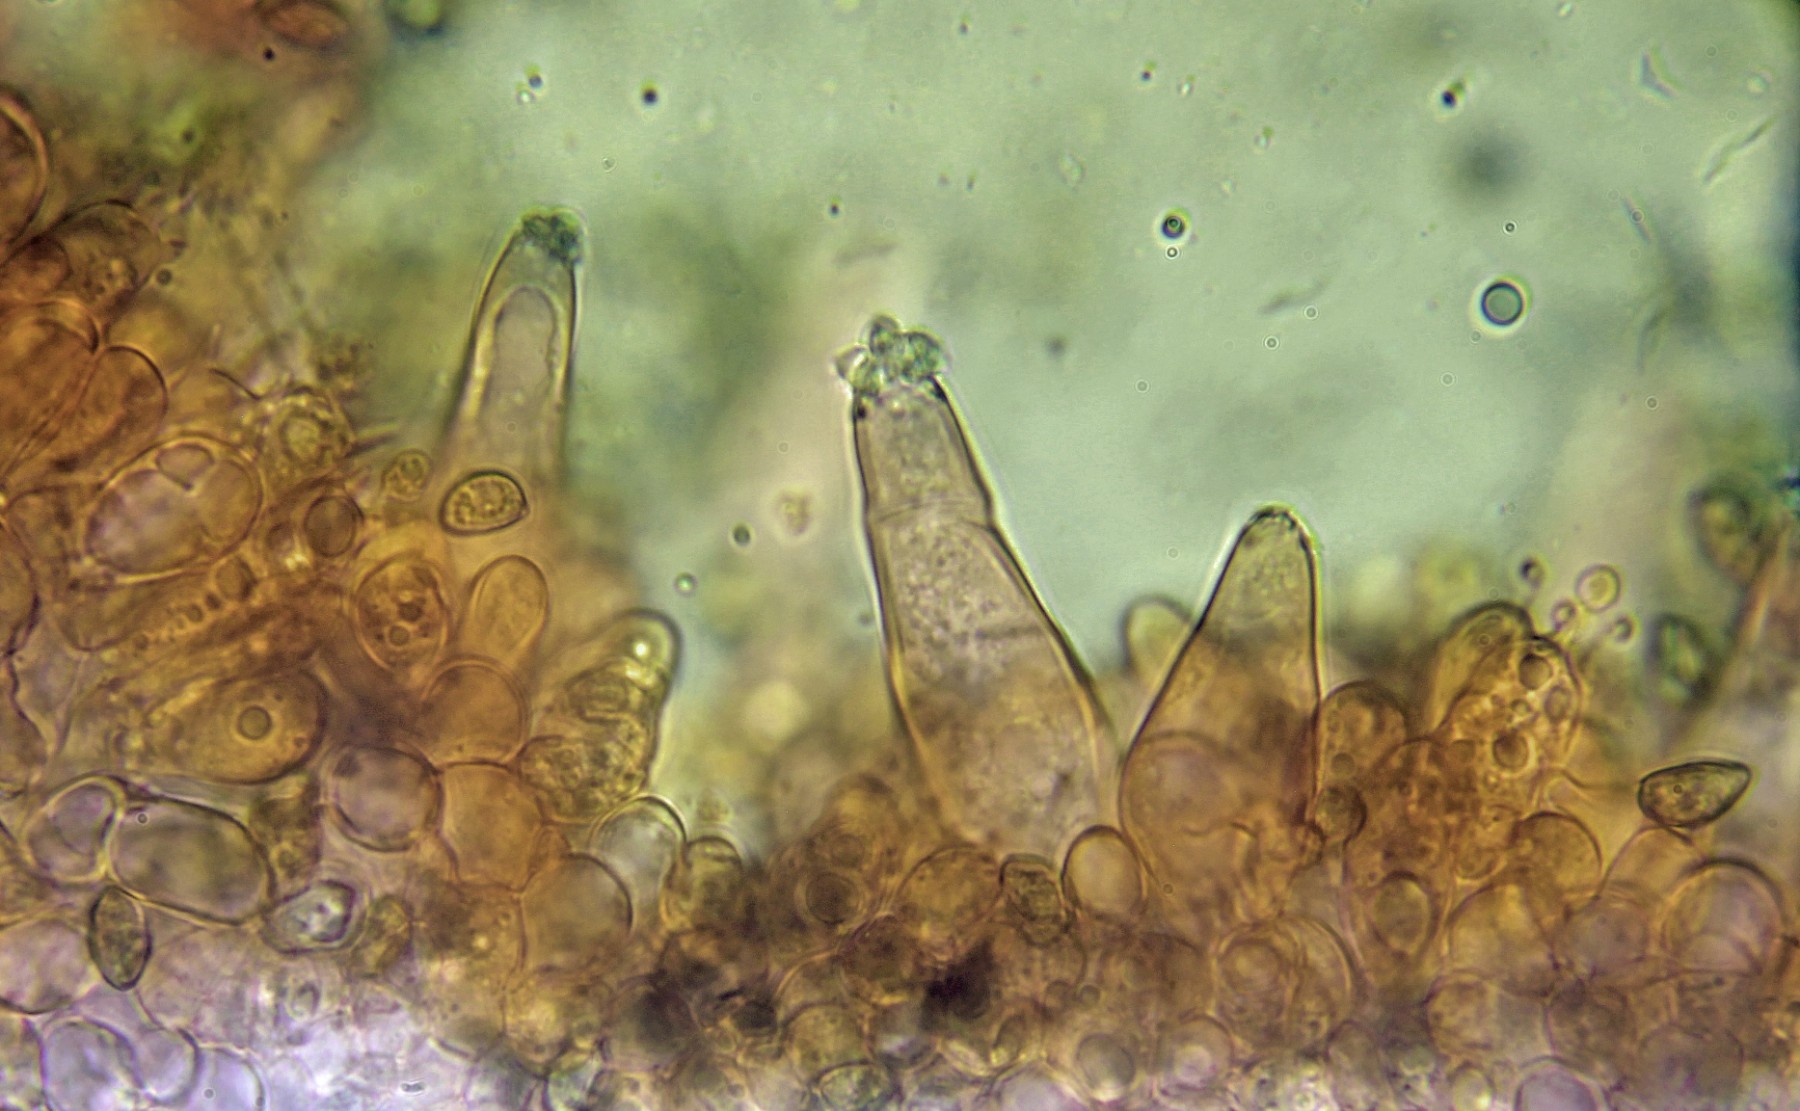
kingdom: Fungi
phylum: Basidiomycota
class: Agaricomycetes
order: Agaricales
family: Inocybaceae
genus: Inocybe
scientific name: Inocybe
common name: trævlhat
